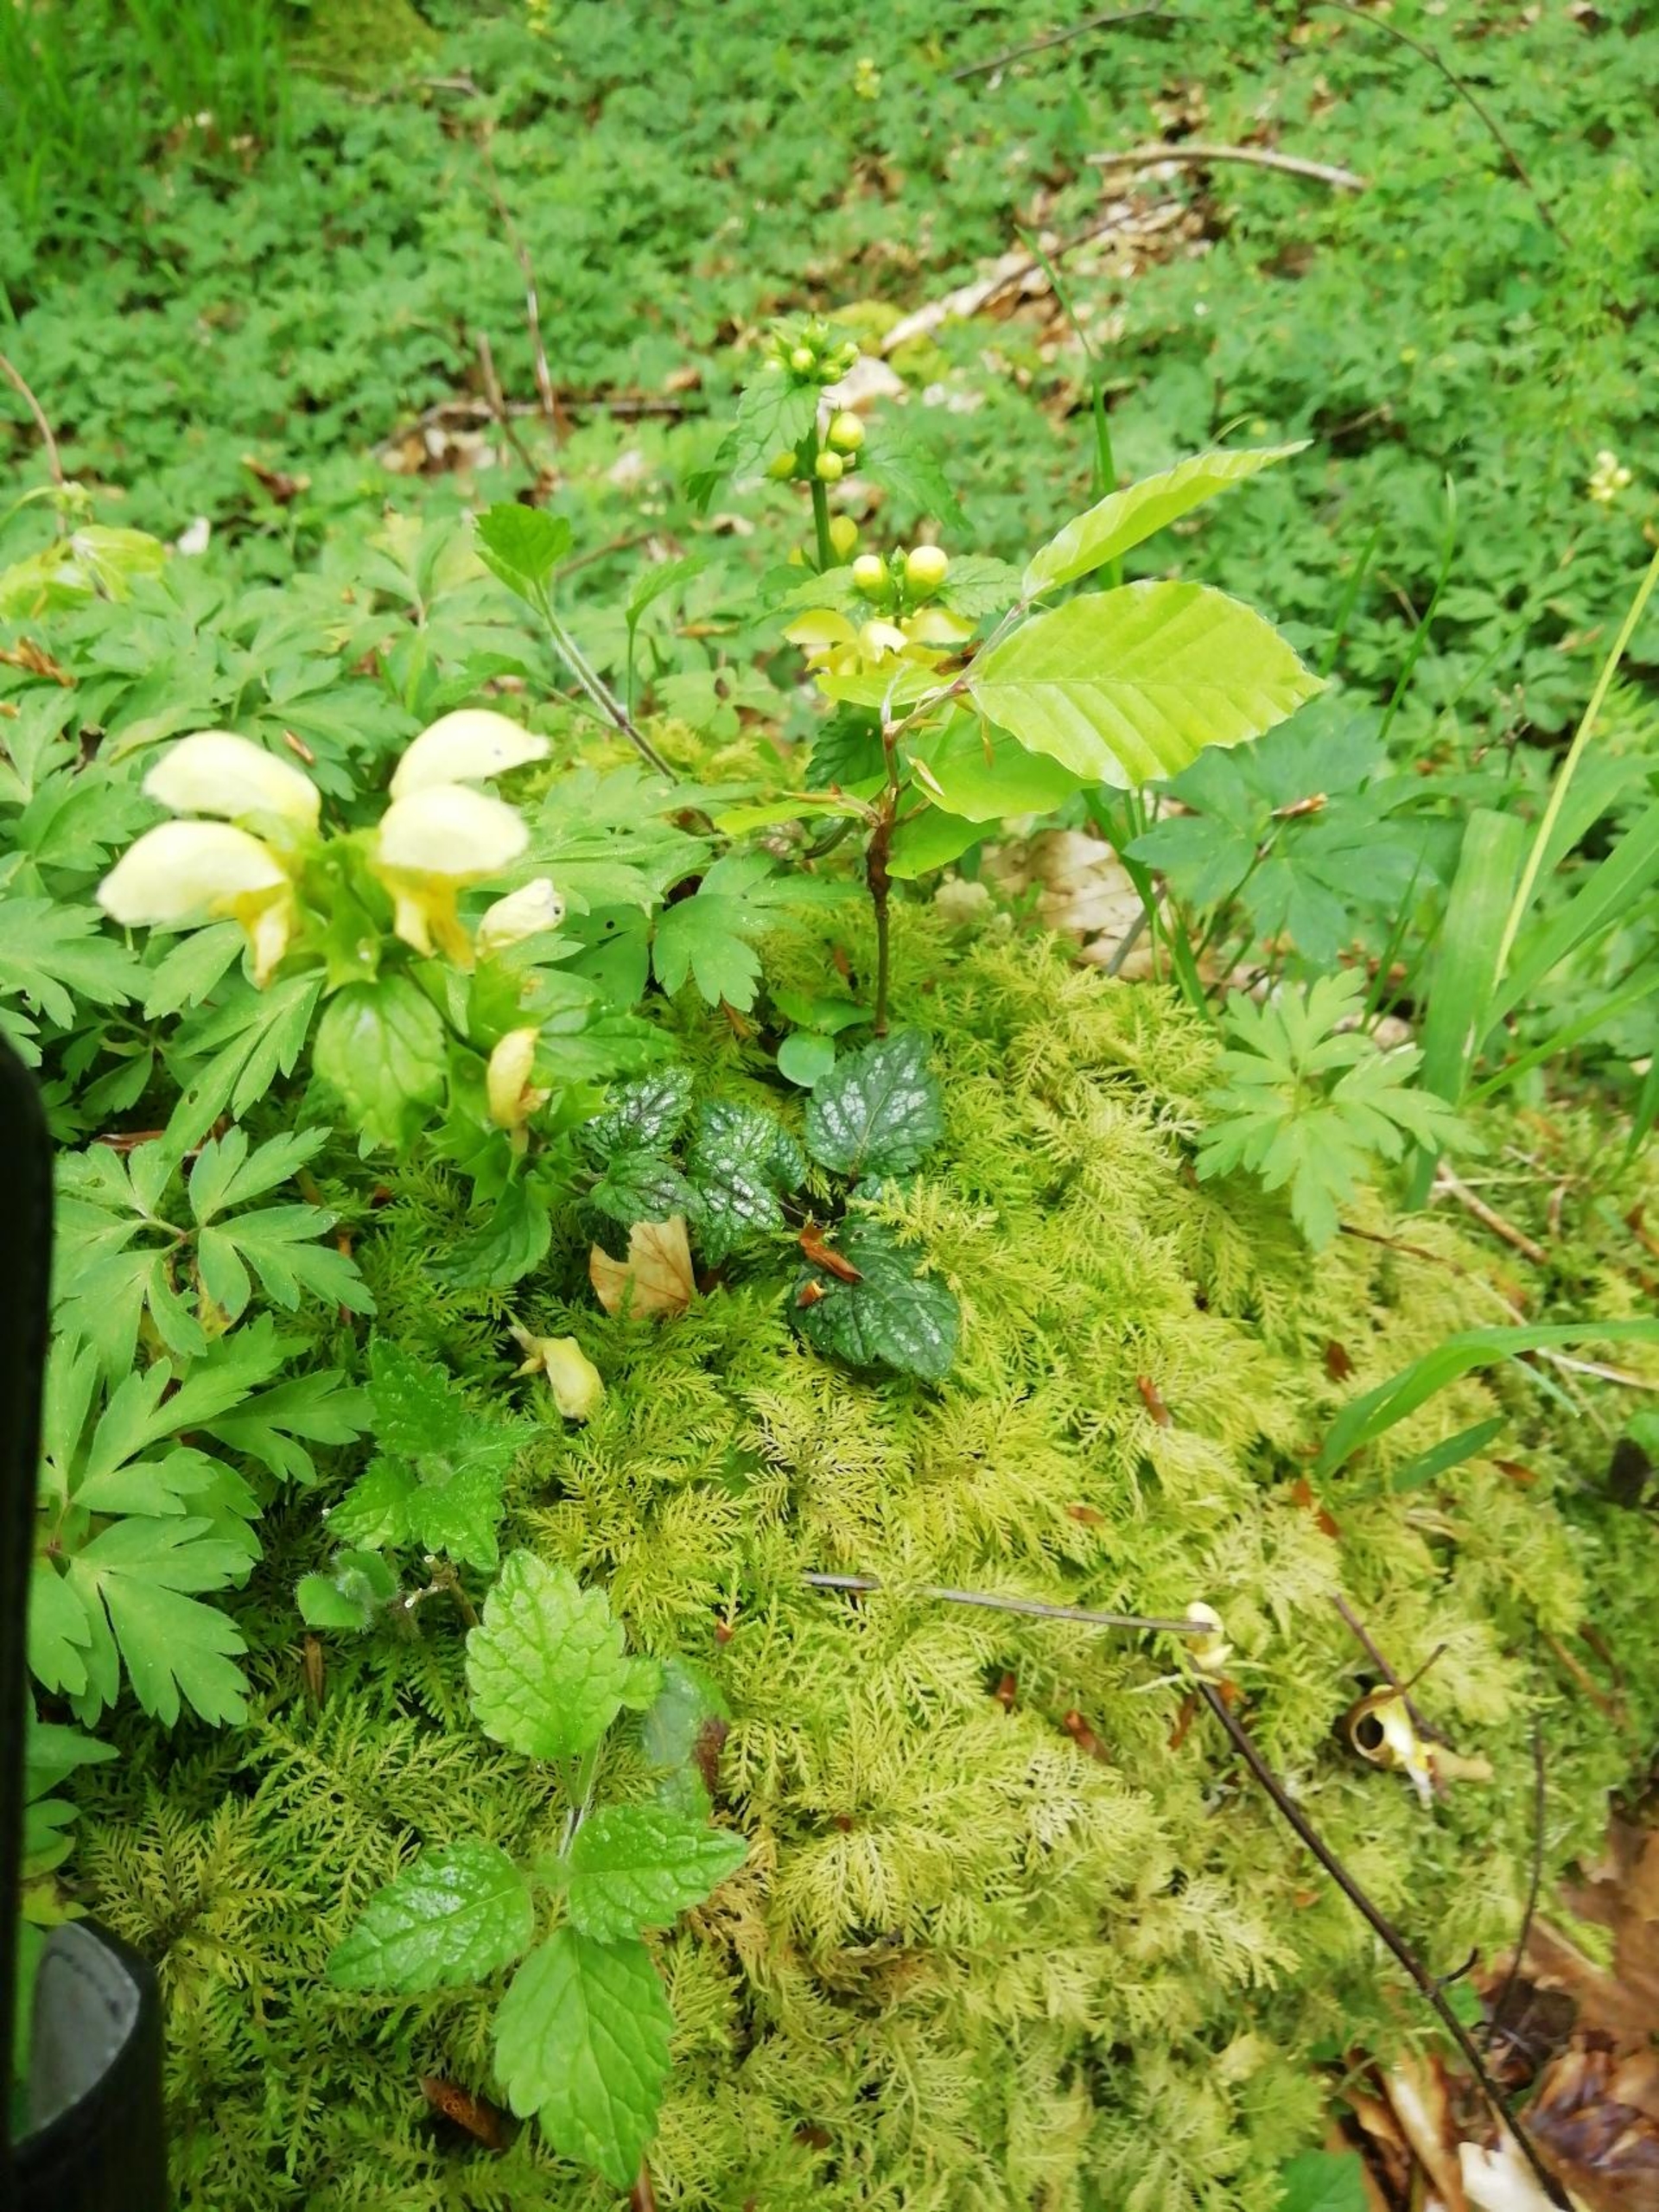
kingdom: Plantae
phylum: Tracheophyta
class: Magnoliopsida
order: Lamiales
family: Lamiaceae
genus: Lamium
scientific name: Lamium galeobdolon
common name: Almindelig guldnælde
